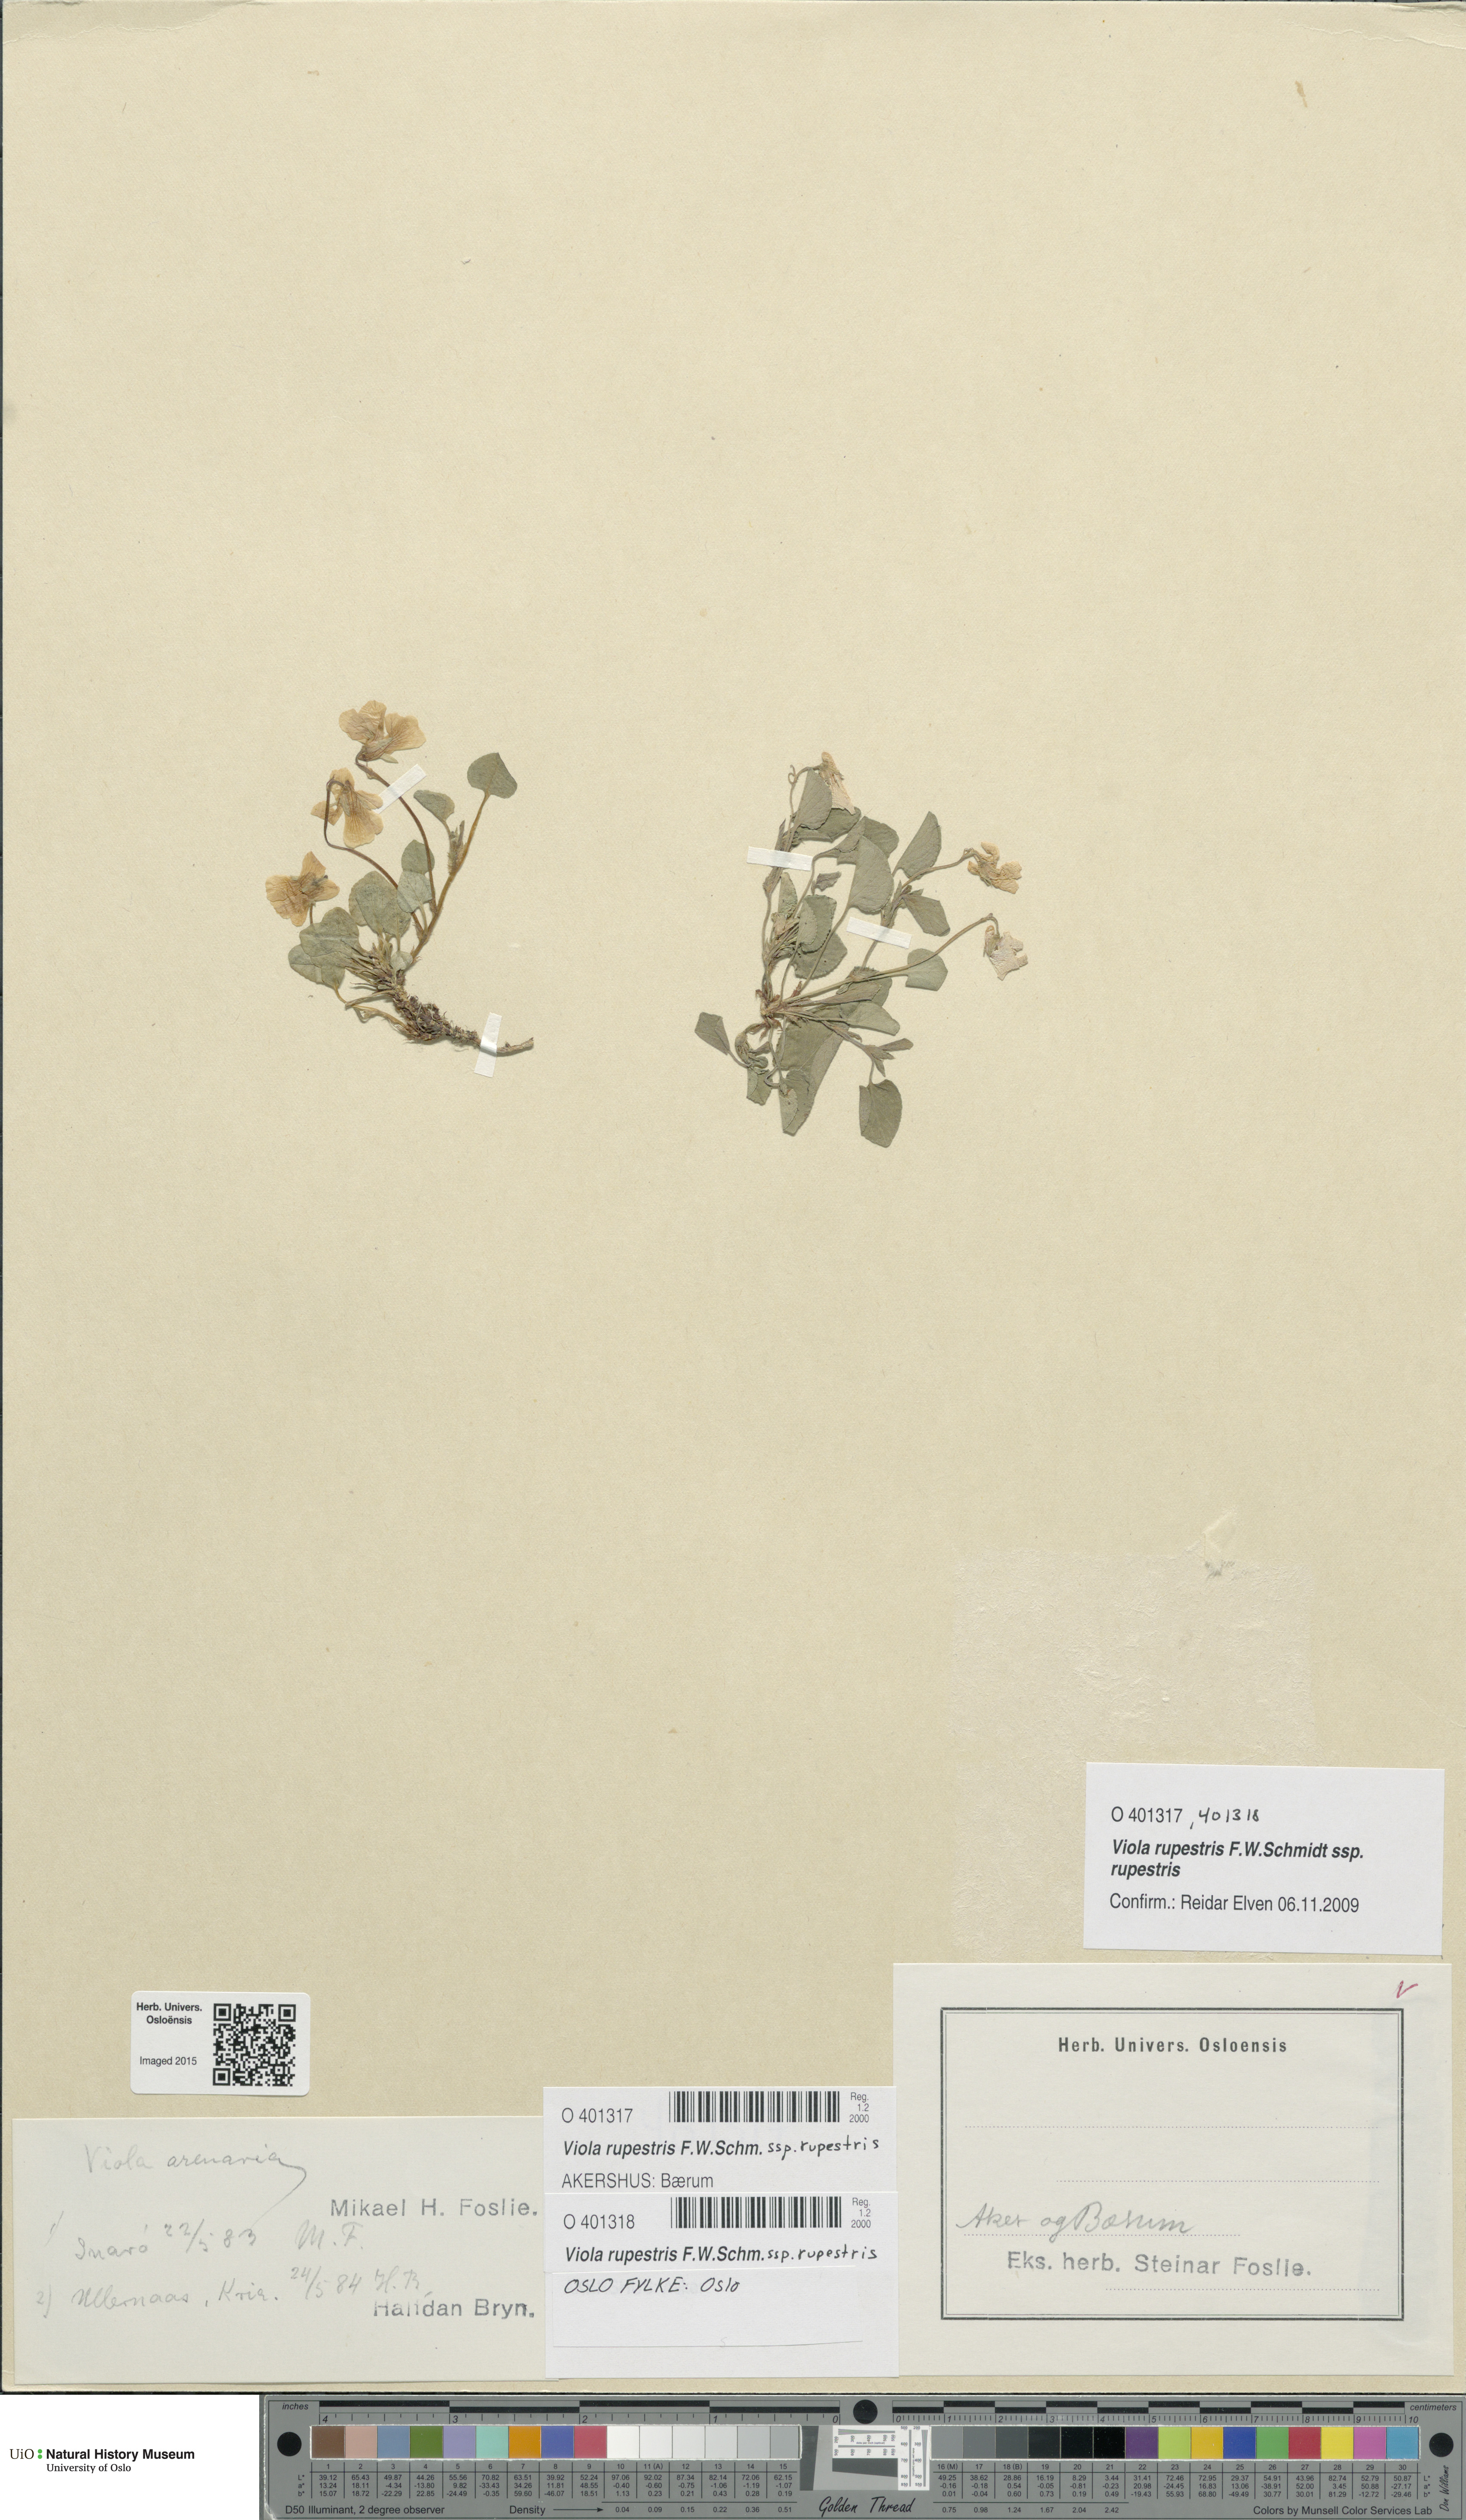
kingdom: Plantae
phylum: Tracheophyta
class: Magnoliopsida
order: Malpighiales
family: Violaceae
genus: Viola
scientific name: Viola rupestris
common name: Teesdale violet
